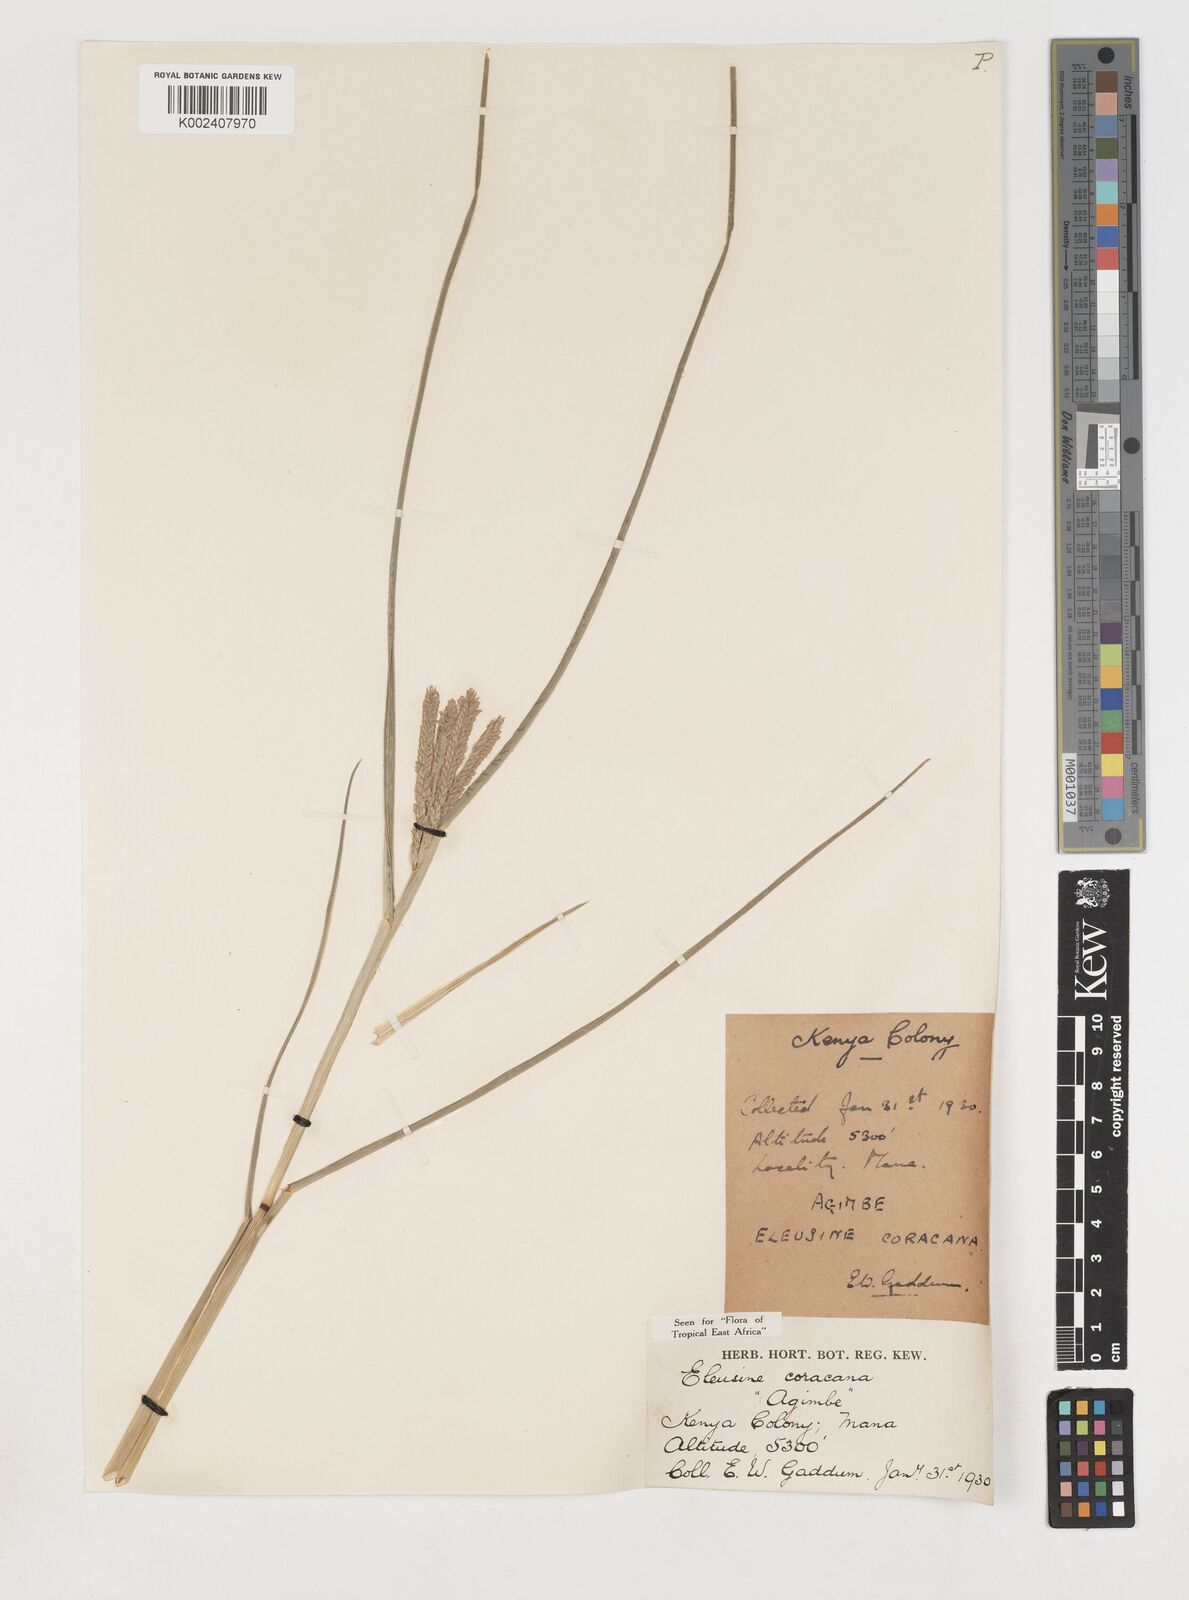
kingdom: Plantae
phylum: Tracheophyta
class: Liliopsida
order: Poales
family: Poaceae
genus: Eleusine
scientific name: Eleusine coracana
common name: Finger millet
